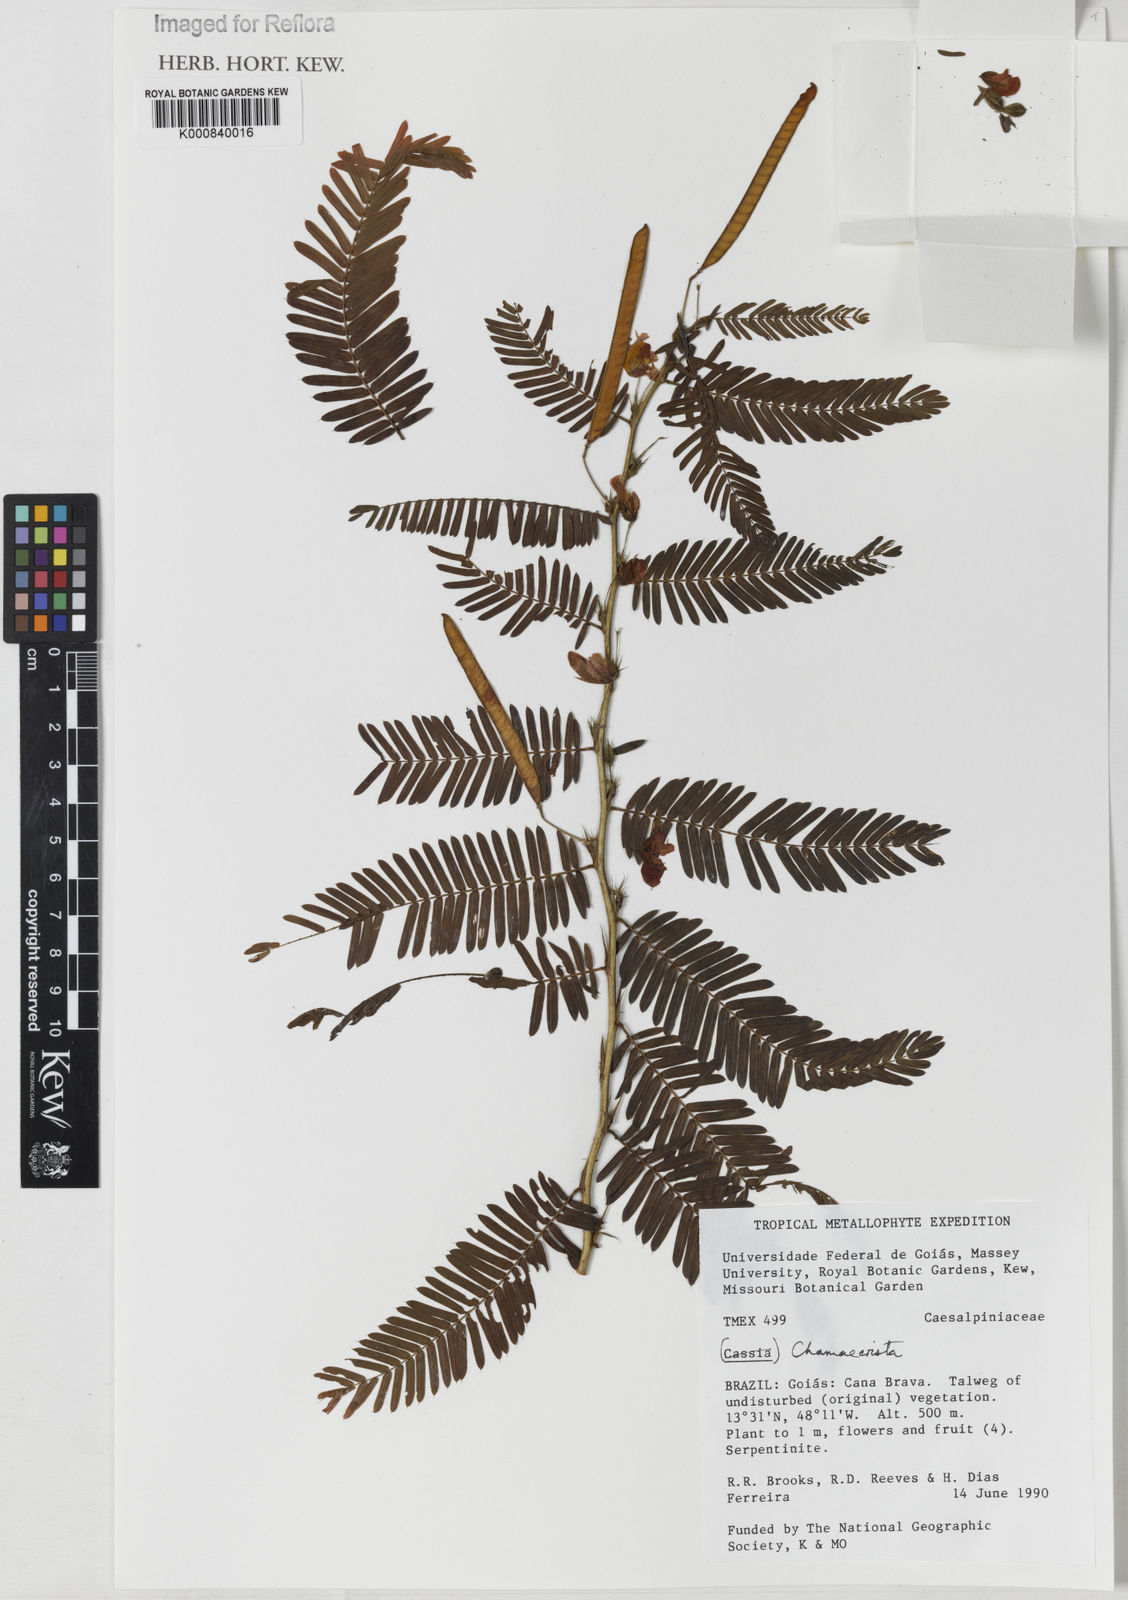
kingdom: Plantae
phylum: Tracheophyta
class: Magnoliopsida
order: Fabales
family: Fabaceae
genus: Chamaecrista
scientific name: Chamaecrista
